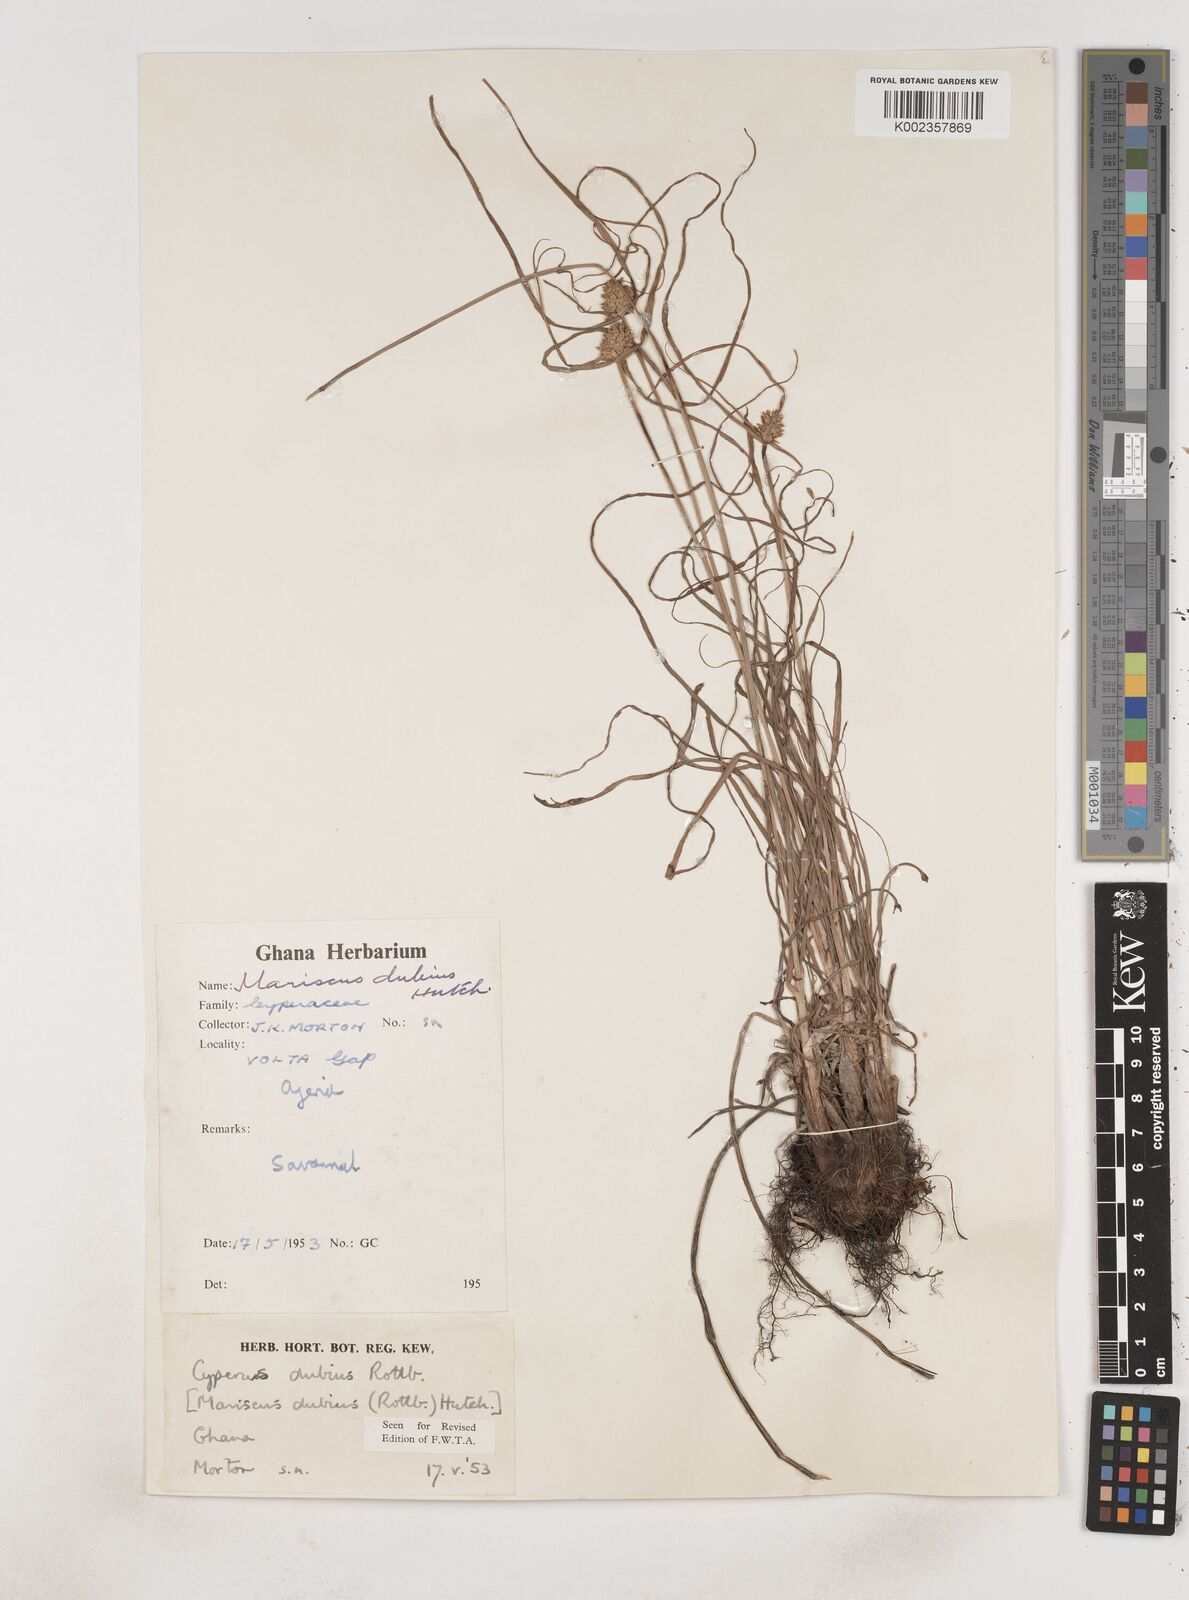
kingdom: Plantae
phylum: Tracheophyta
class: Liliopsida
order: Poales
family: Cyperaceae
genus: Cyperus
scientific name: Cyperus dubius
